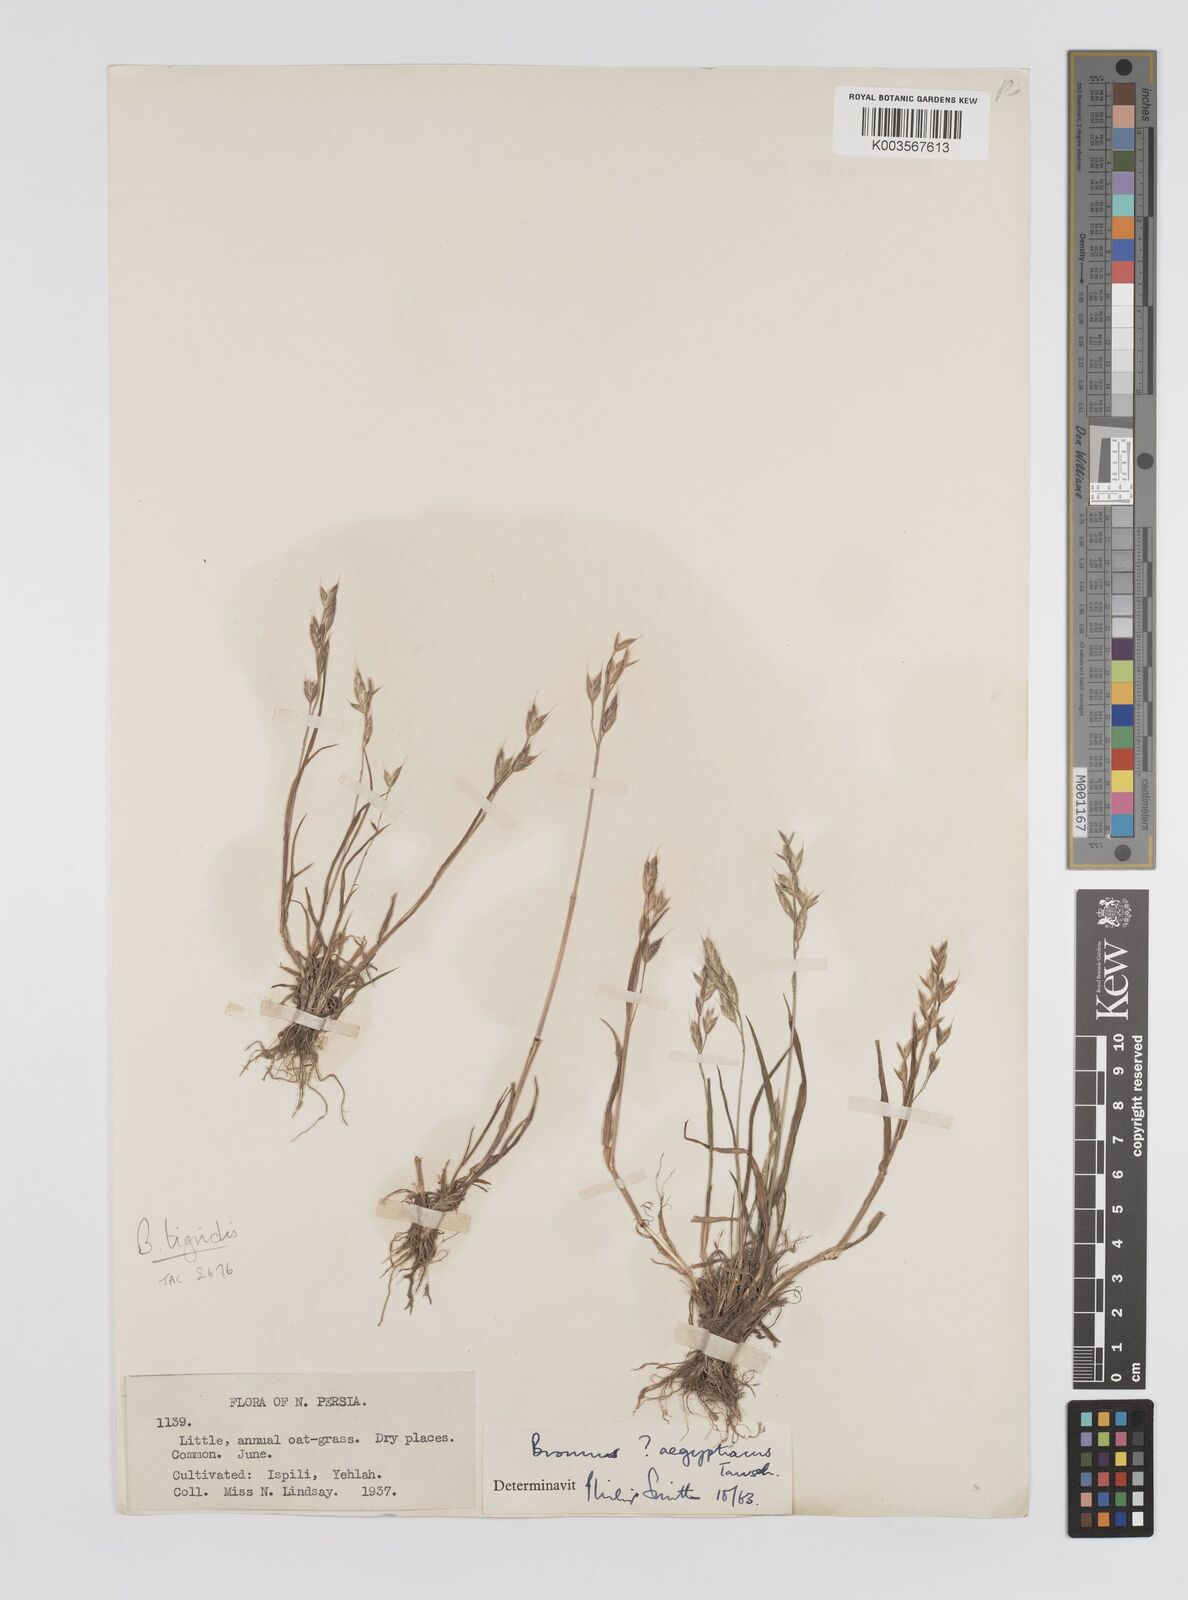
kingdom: Plantae
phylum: Tracheophyta
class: Liliopsida
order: Poales
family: Poaceae
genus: Bromus
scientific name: Bromus brachystachys
